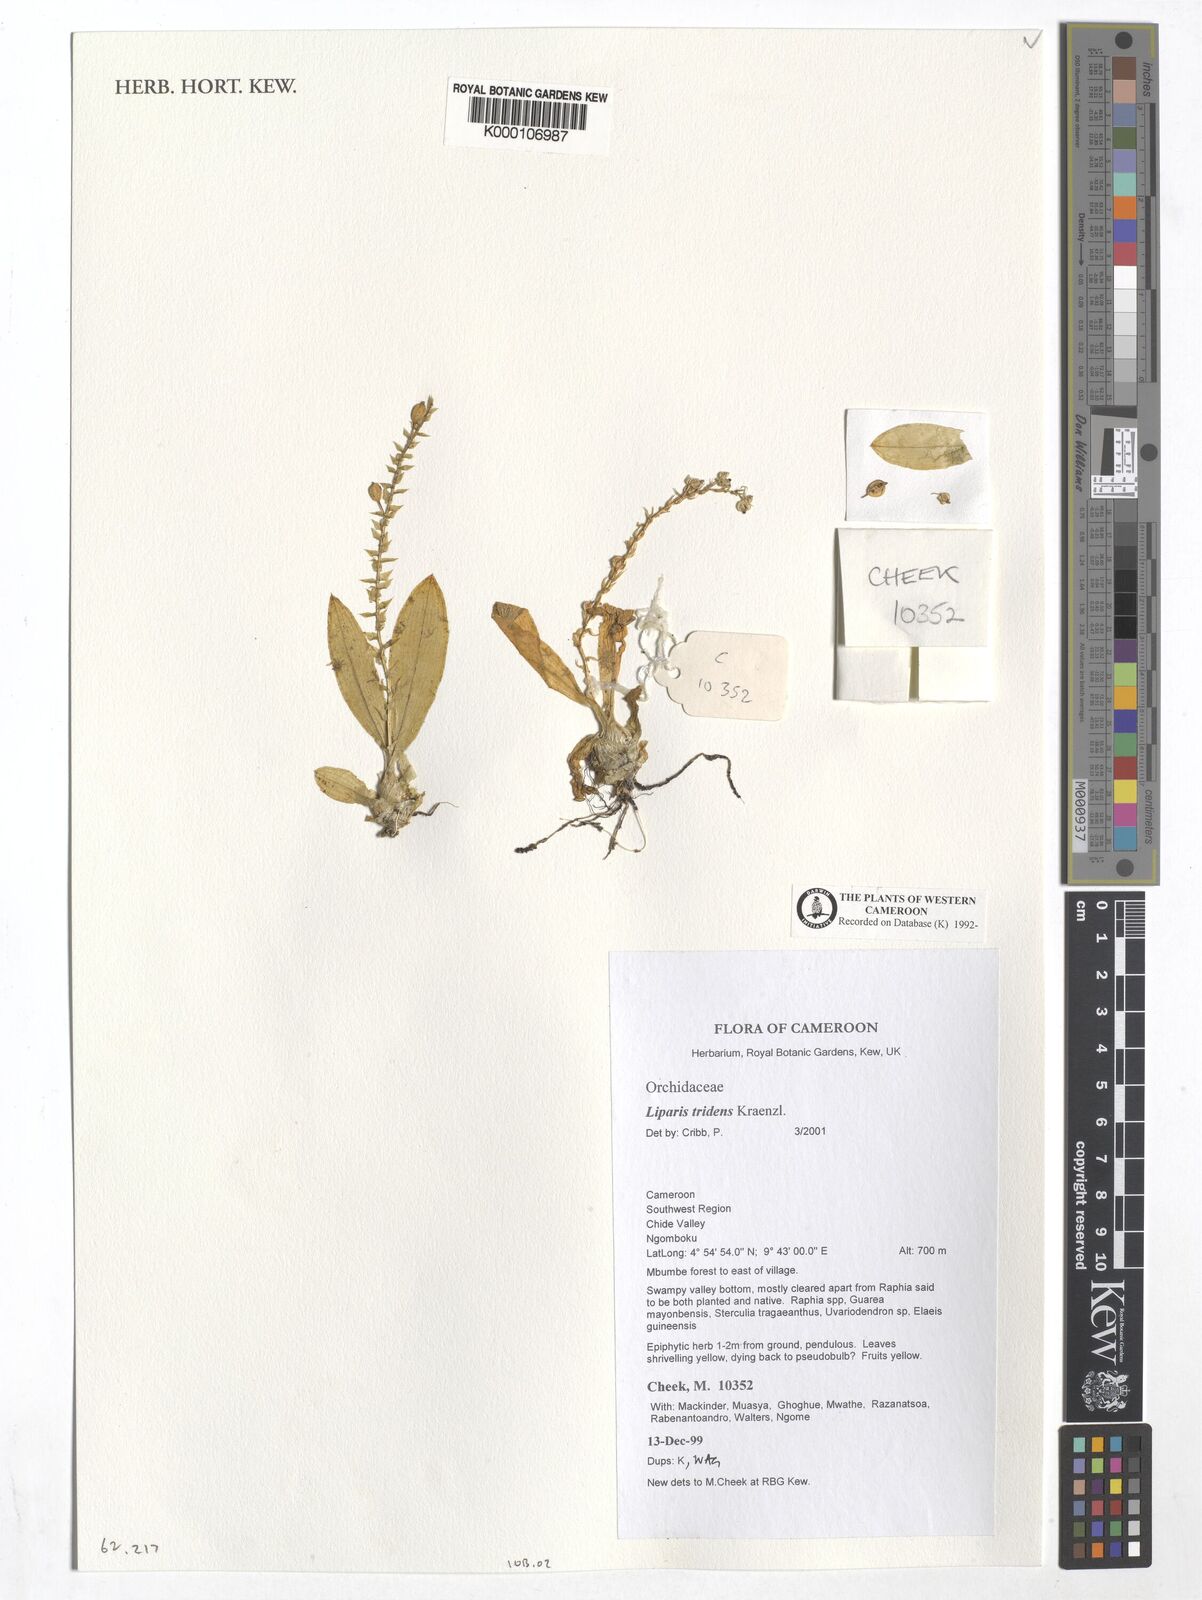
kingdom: Plantae
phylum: Tracheophyta
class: Liliopsida
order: Asparagales
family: Orchidaceae
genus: Liparis
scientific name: Liparis tridens
